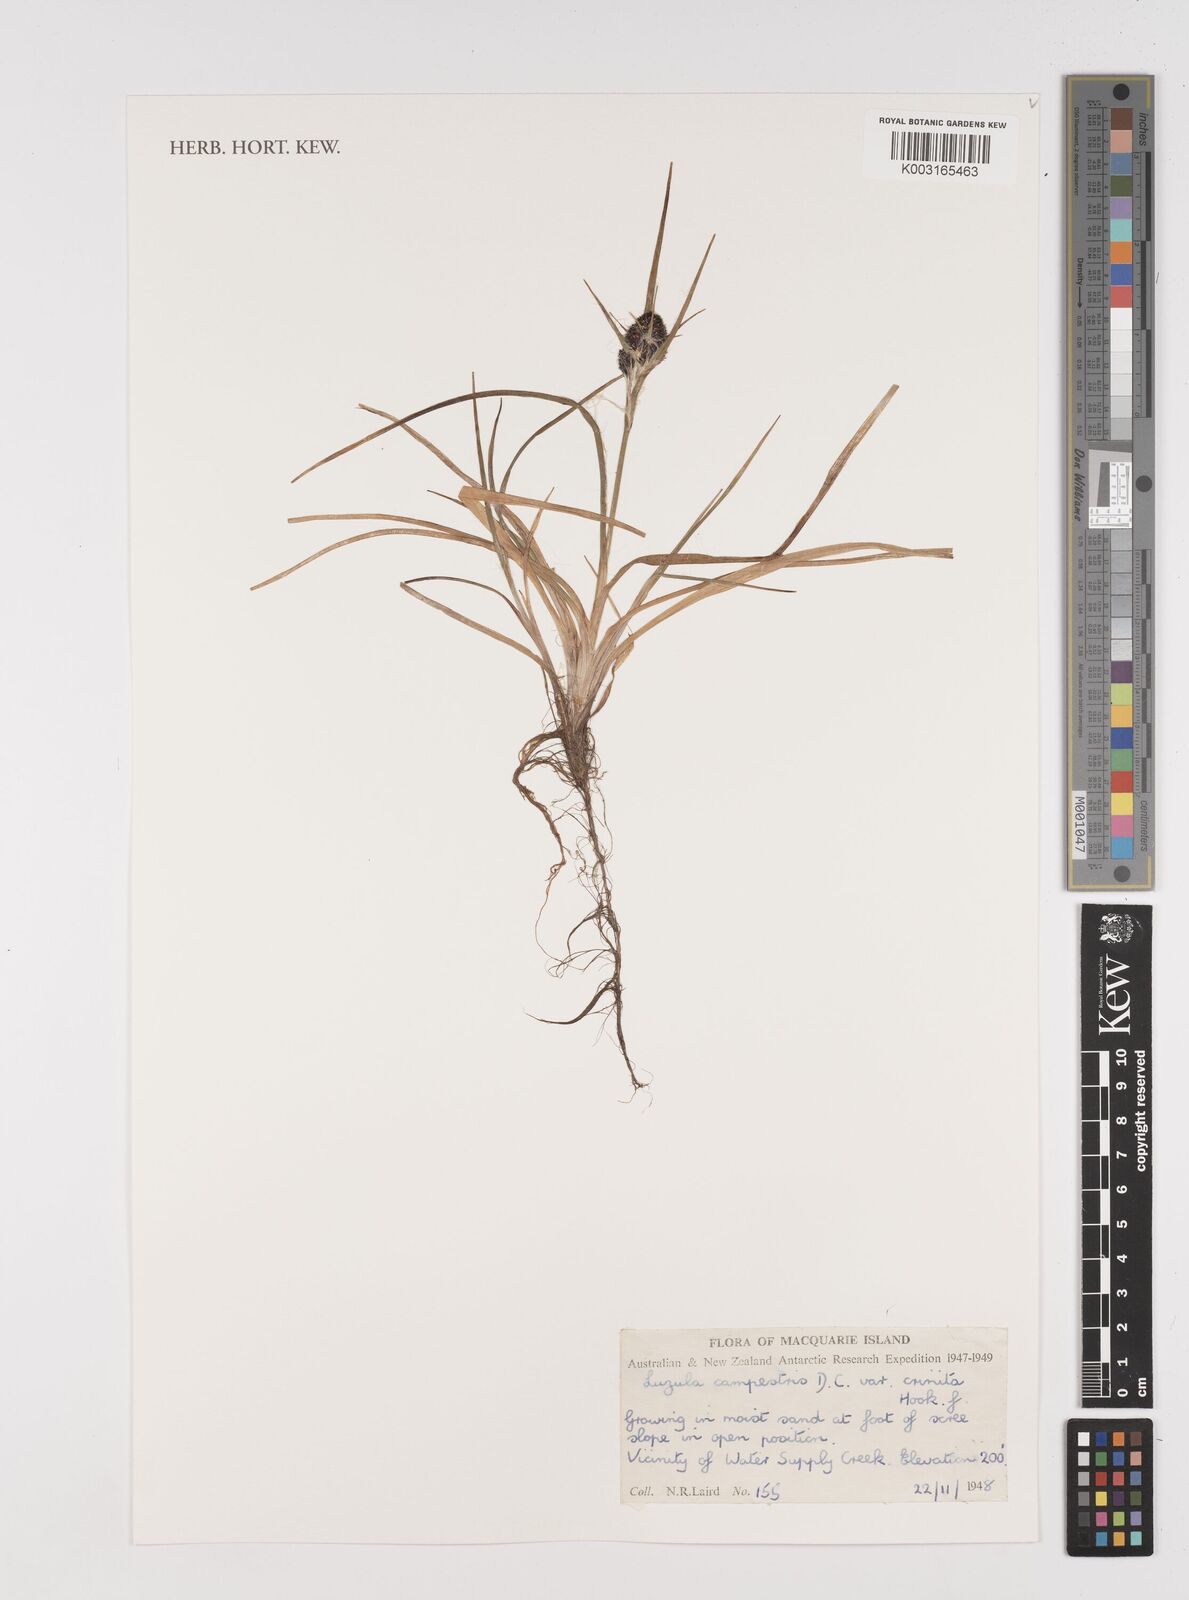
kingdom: Plantae
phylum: Tracheophyta
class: Liliopsida
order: Poales
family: Juncaceae
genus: Luzula
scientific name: Luzula crinita
